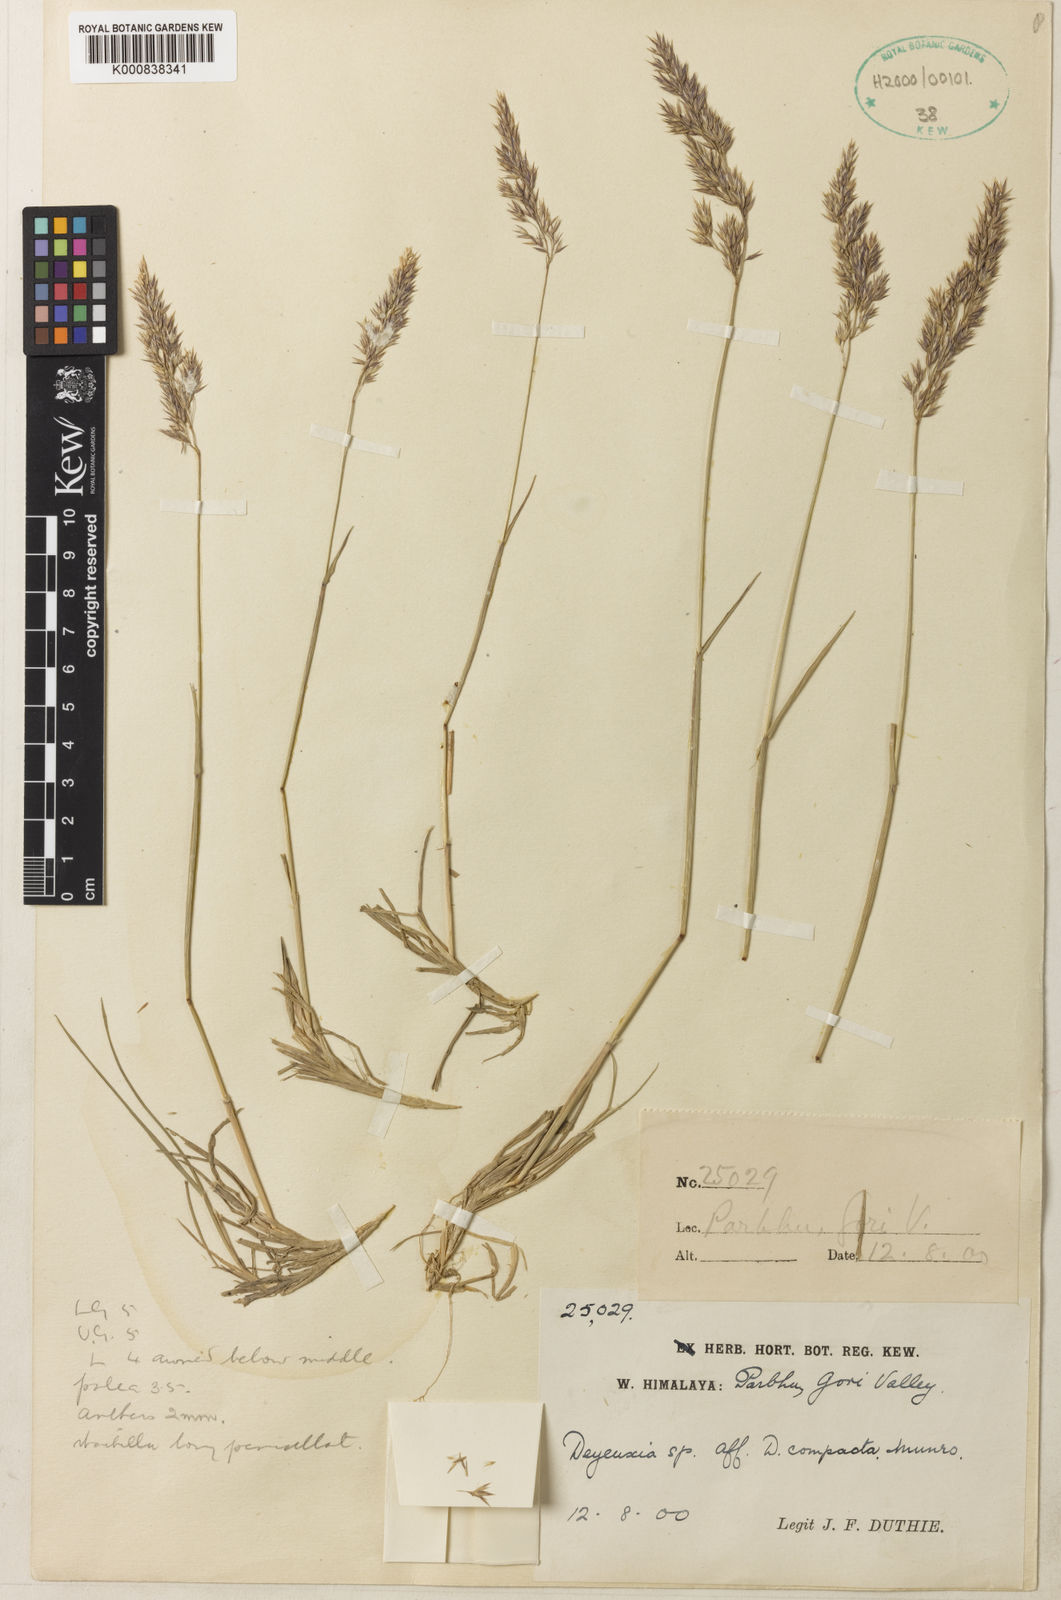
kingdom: Plantae
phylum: Tracheophyta
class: Liliopsida
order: Poales
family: Poaceae
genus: Calamagrostis
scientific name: Calamagrostis scabrescens
